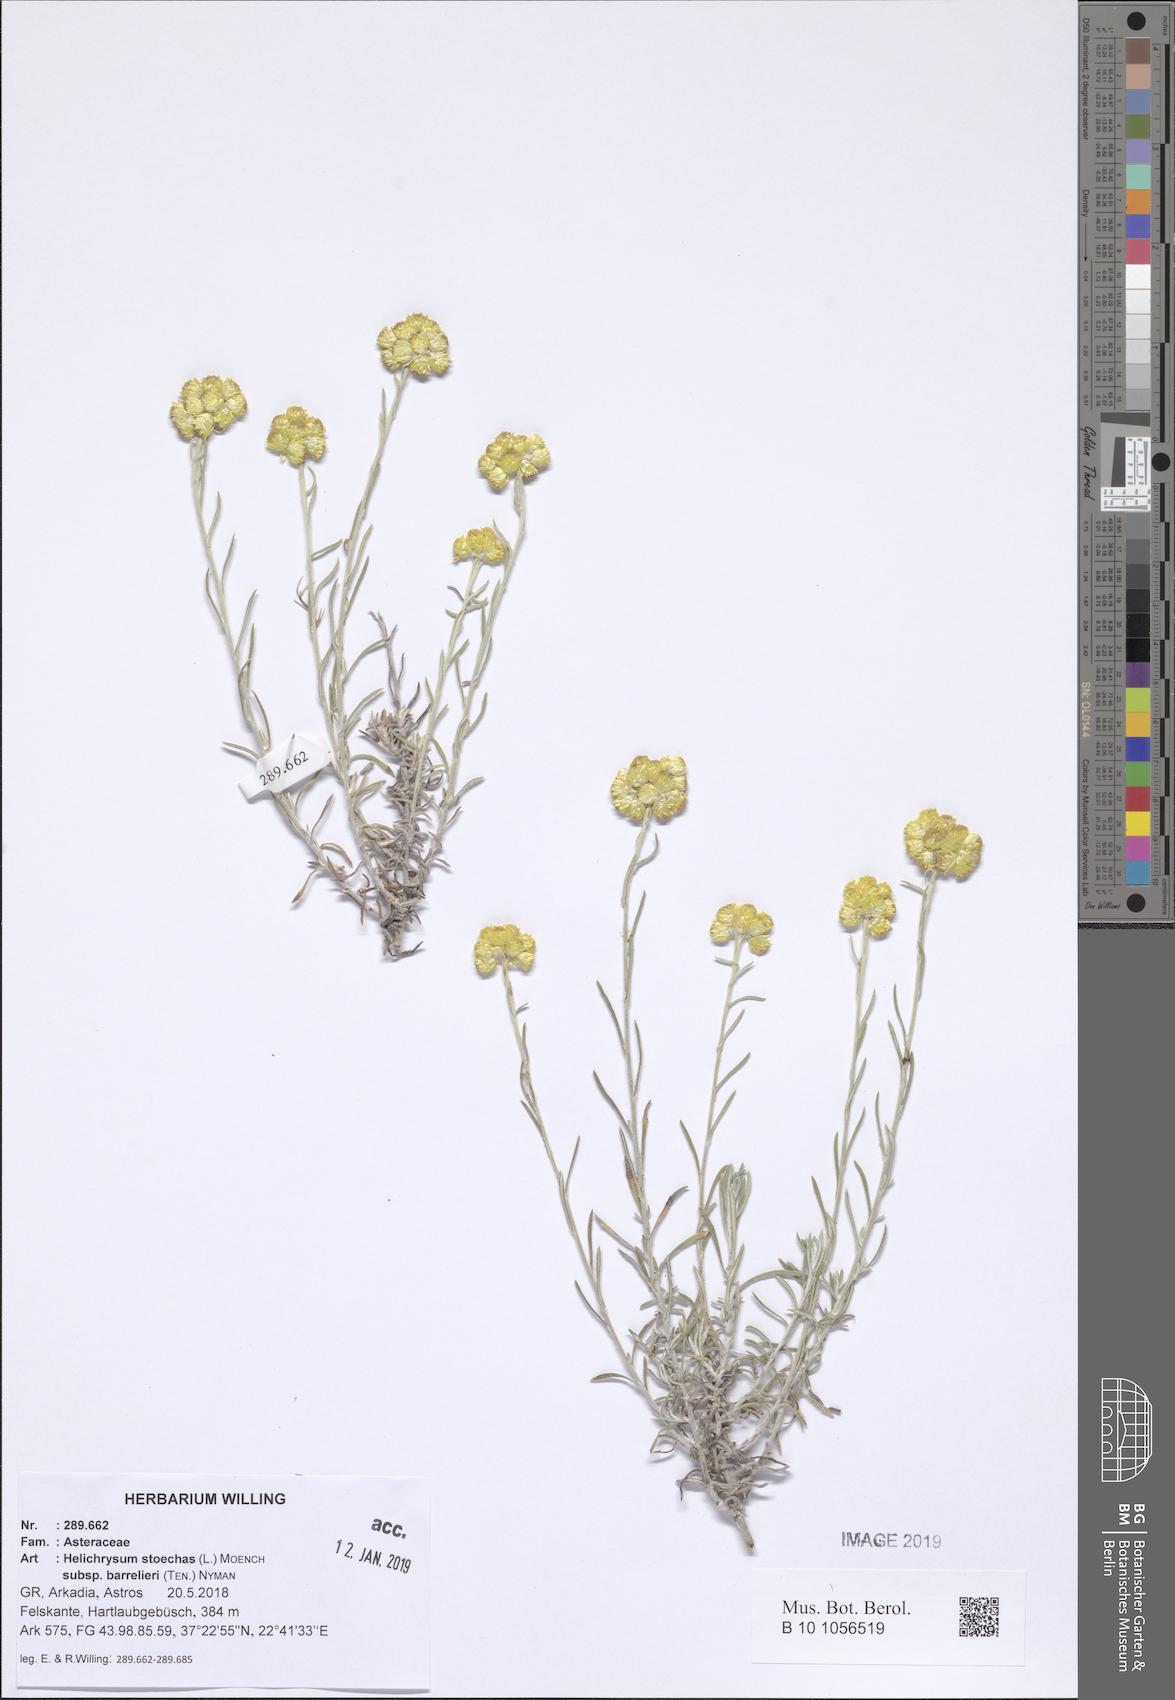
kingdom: Plantae
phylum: Tracheophyta
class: Magnoliopsida
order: Asterales
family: Asteraceae
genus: Helichrysum
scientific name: Helichrysum stoechas
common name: Goldilocks
